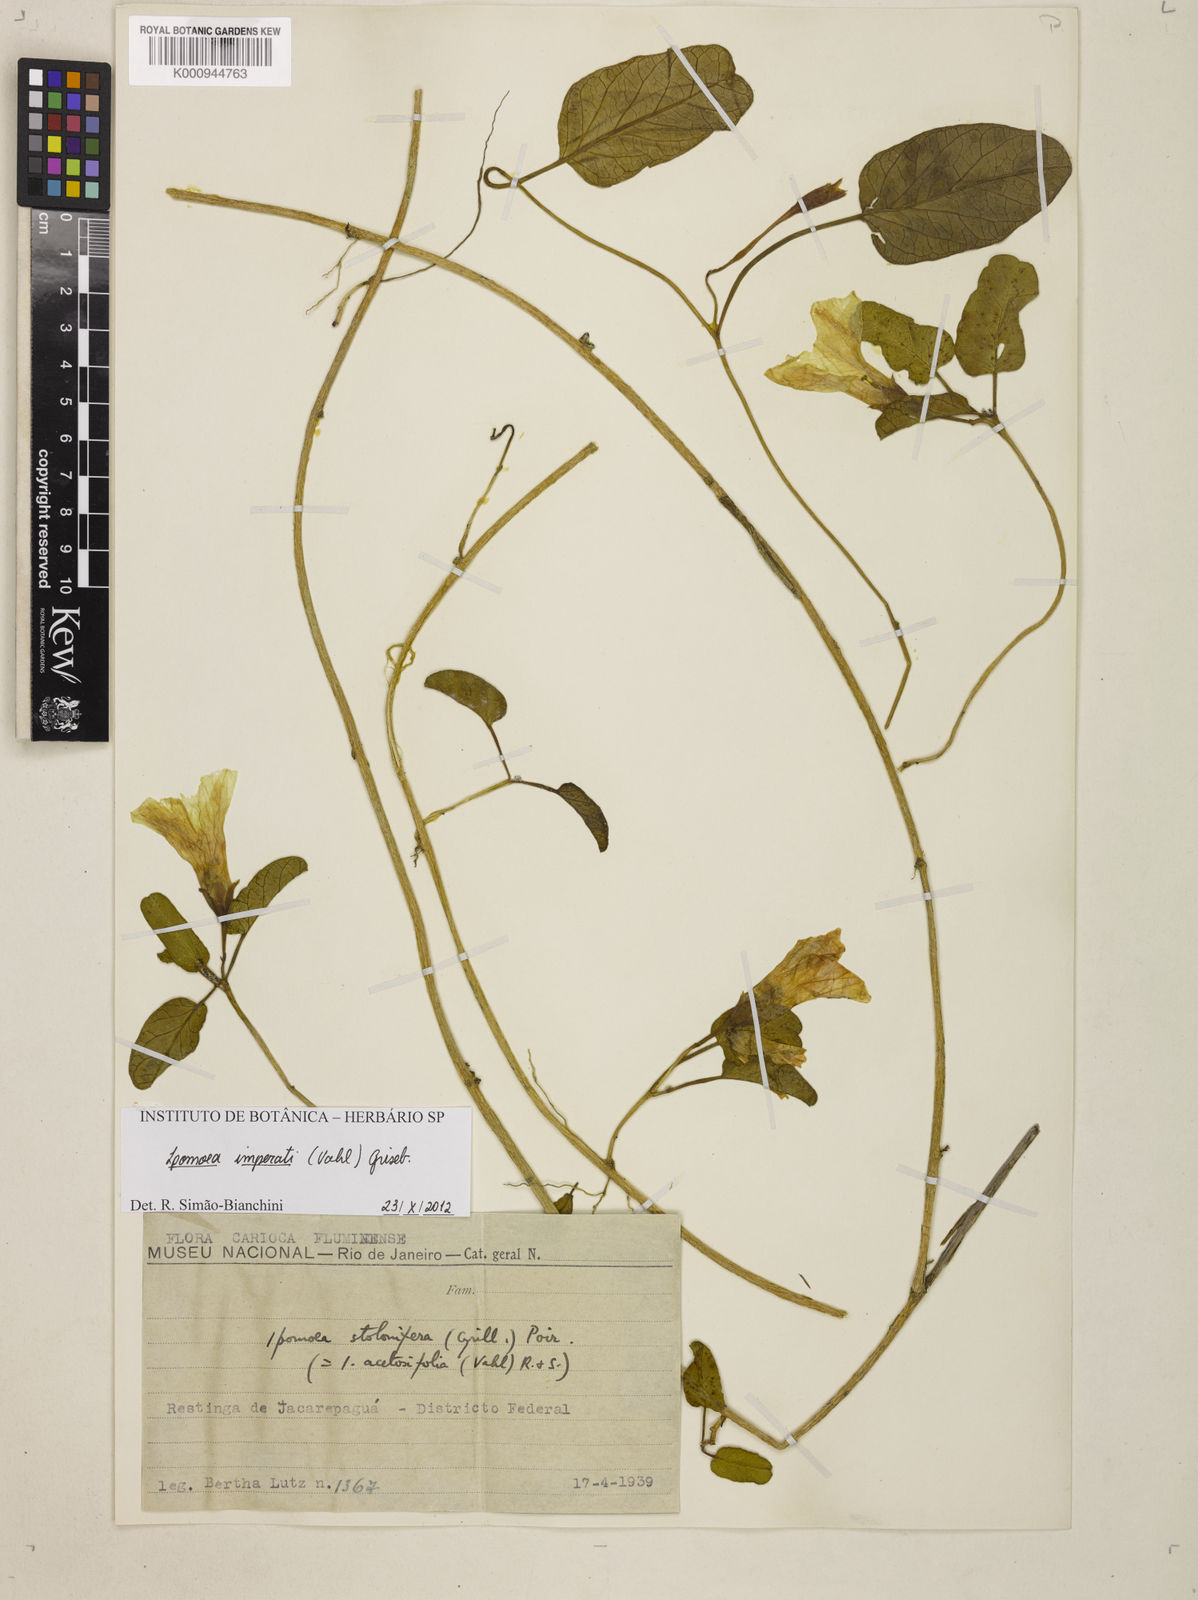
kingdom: Plantae
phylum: Tracheophyta
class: Magnoliopsida
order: Solanales
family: Convolvulaceae
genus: Ipomoea
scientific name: Ipomoea
